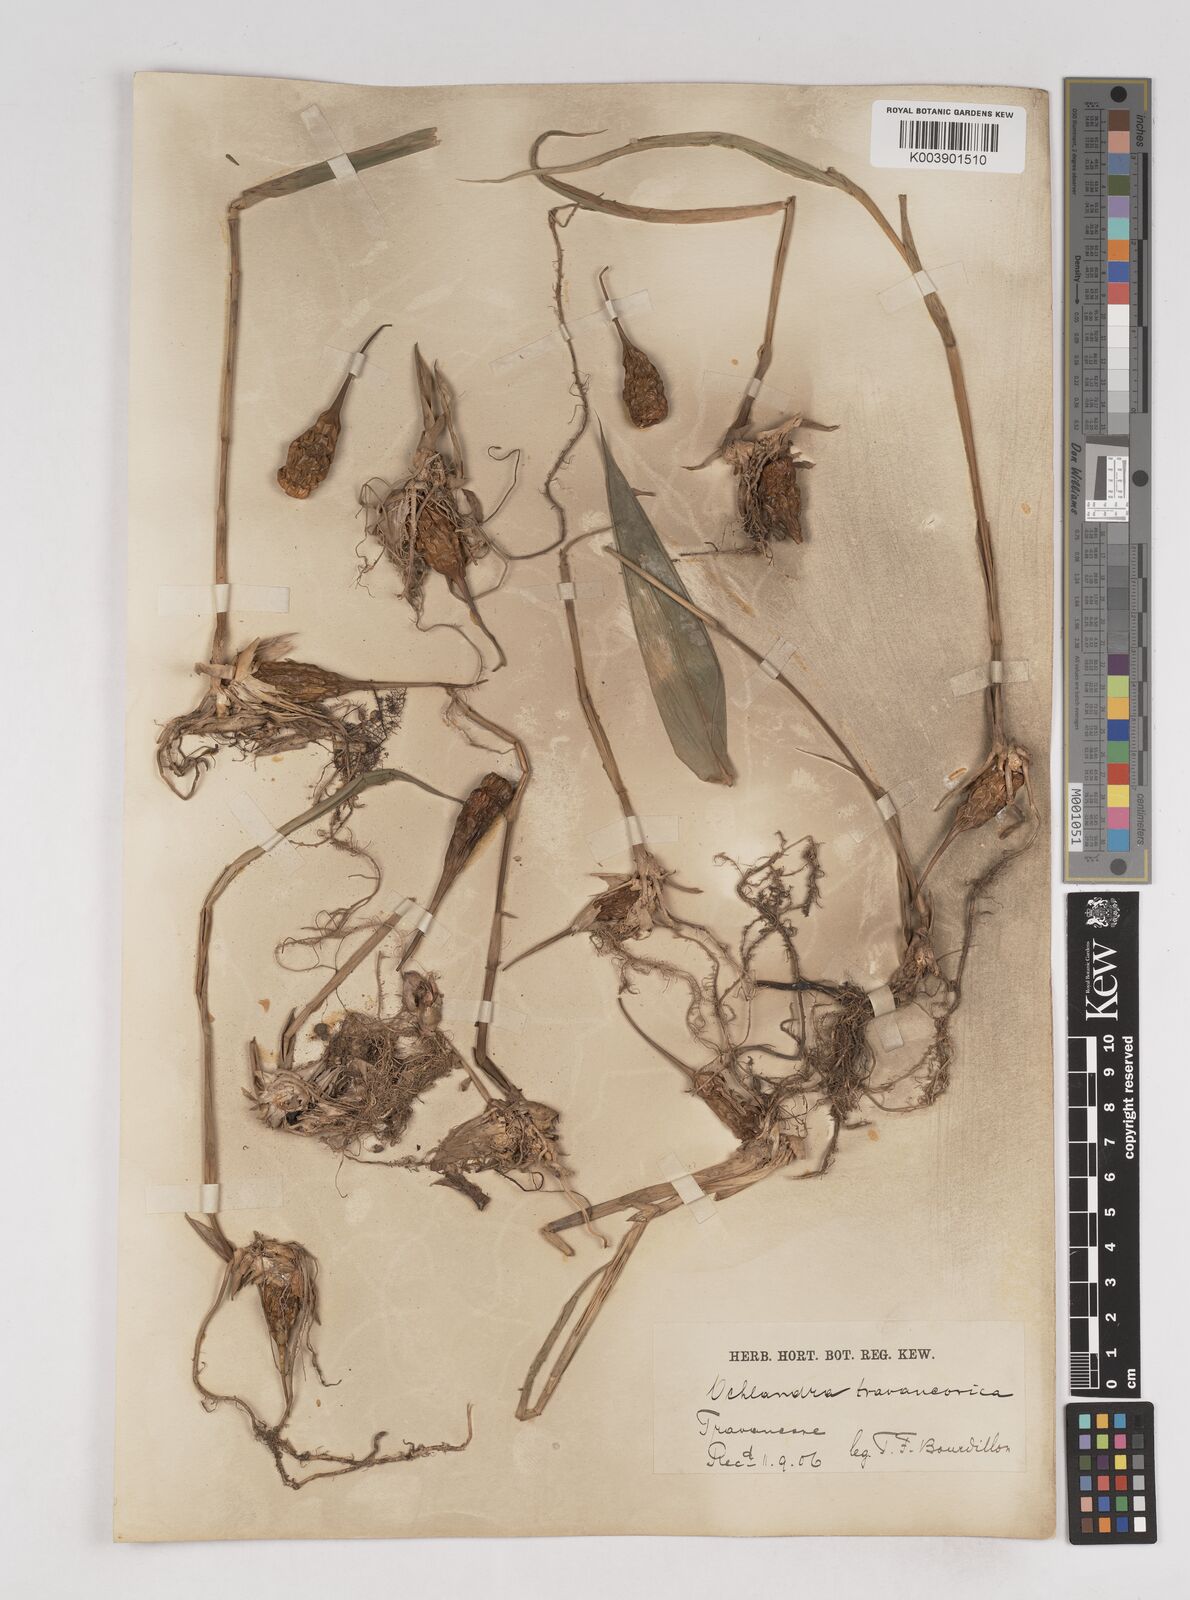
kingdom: Plantae
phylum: Tracheophyta
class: Liliopsida
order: Poales
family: Poaceae
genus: Ochlandra
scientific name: Ochlandra travancorica
